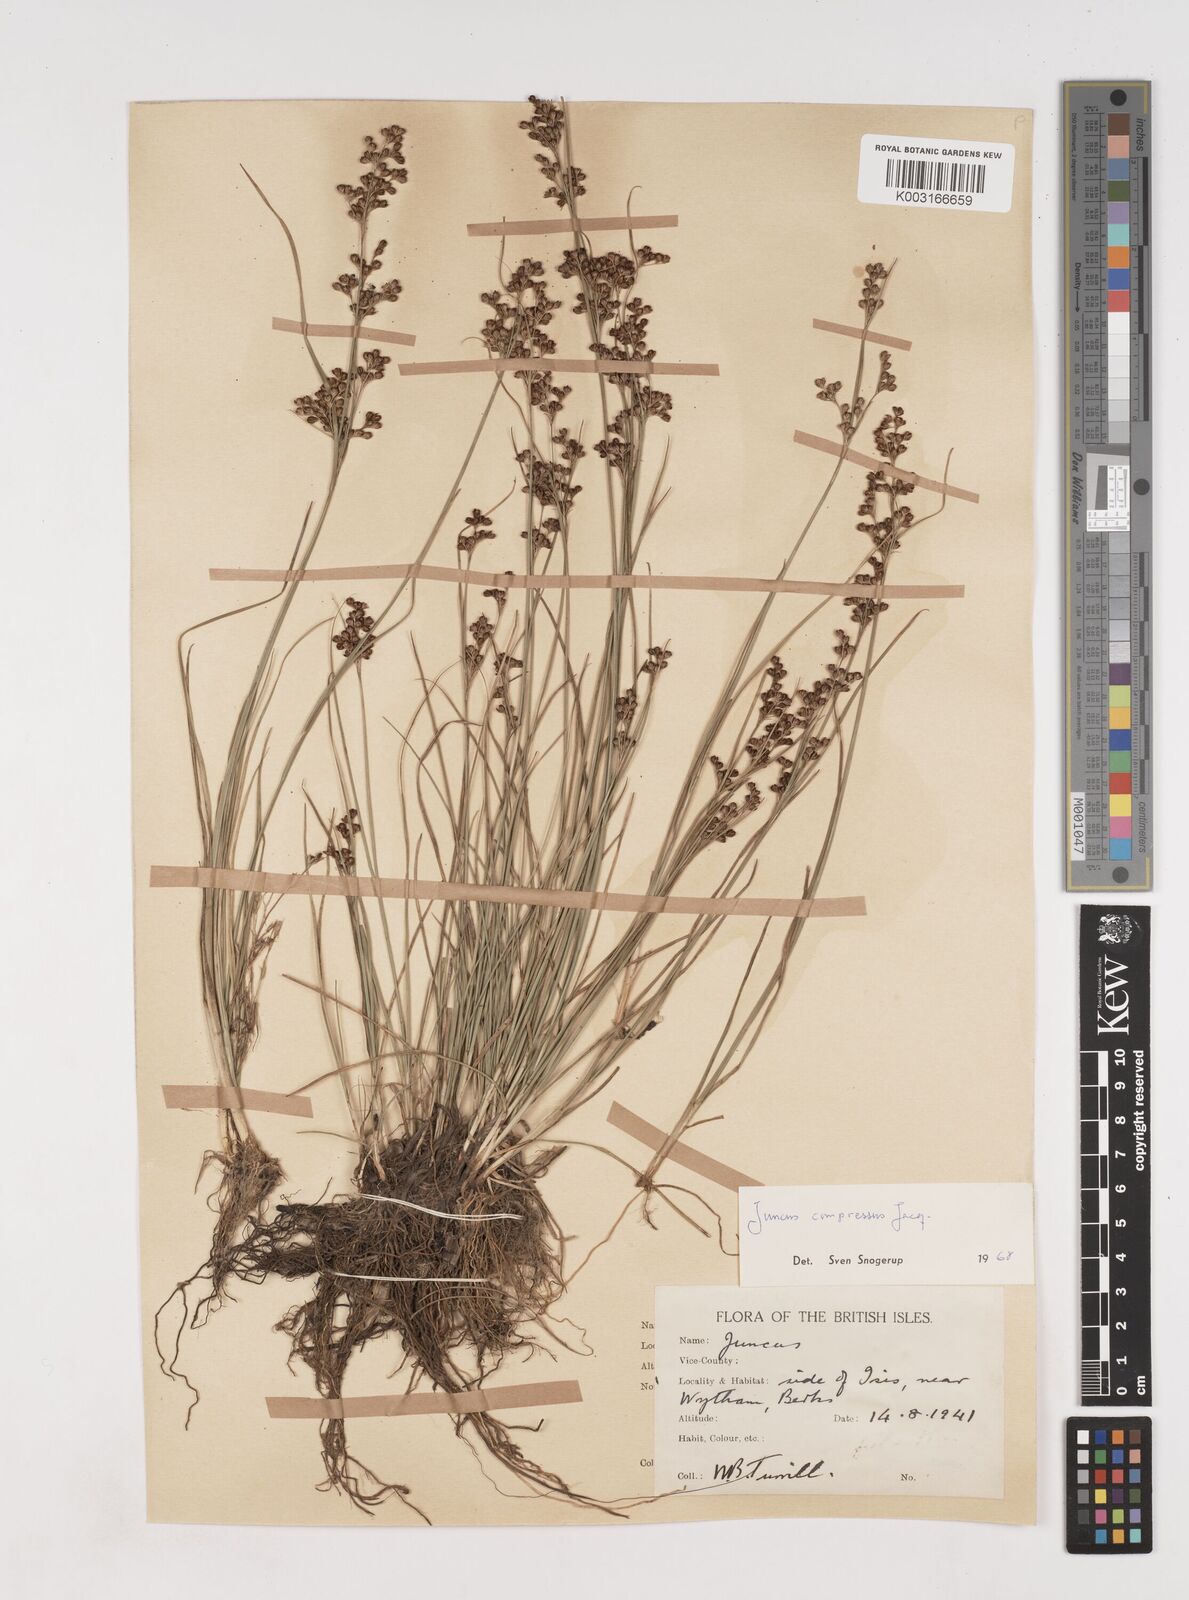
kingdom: Plantae
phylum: Tracheophyta
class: Liliopsida
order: Poales
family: Juncaceae
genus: Juncus
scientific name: Juncus compressus
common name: Round-fruited rush
